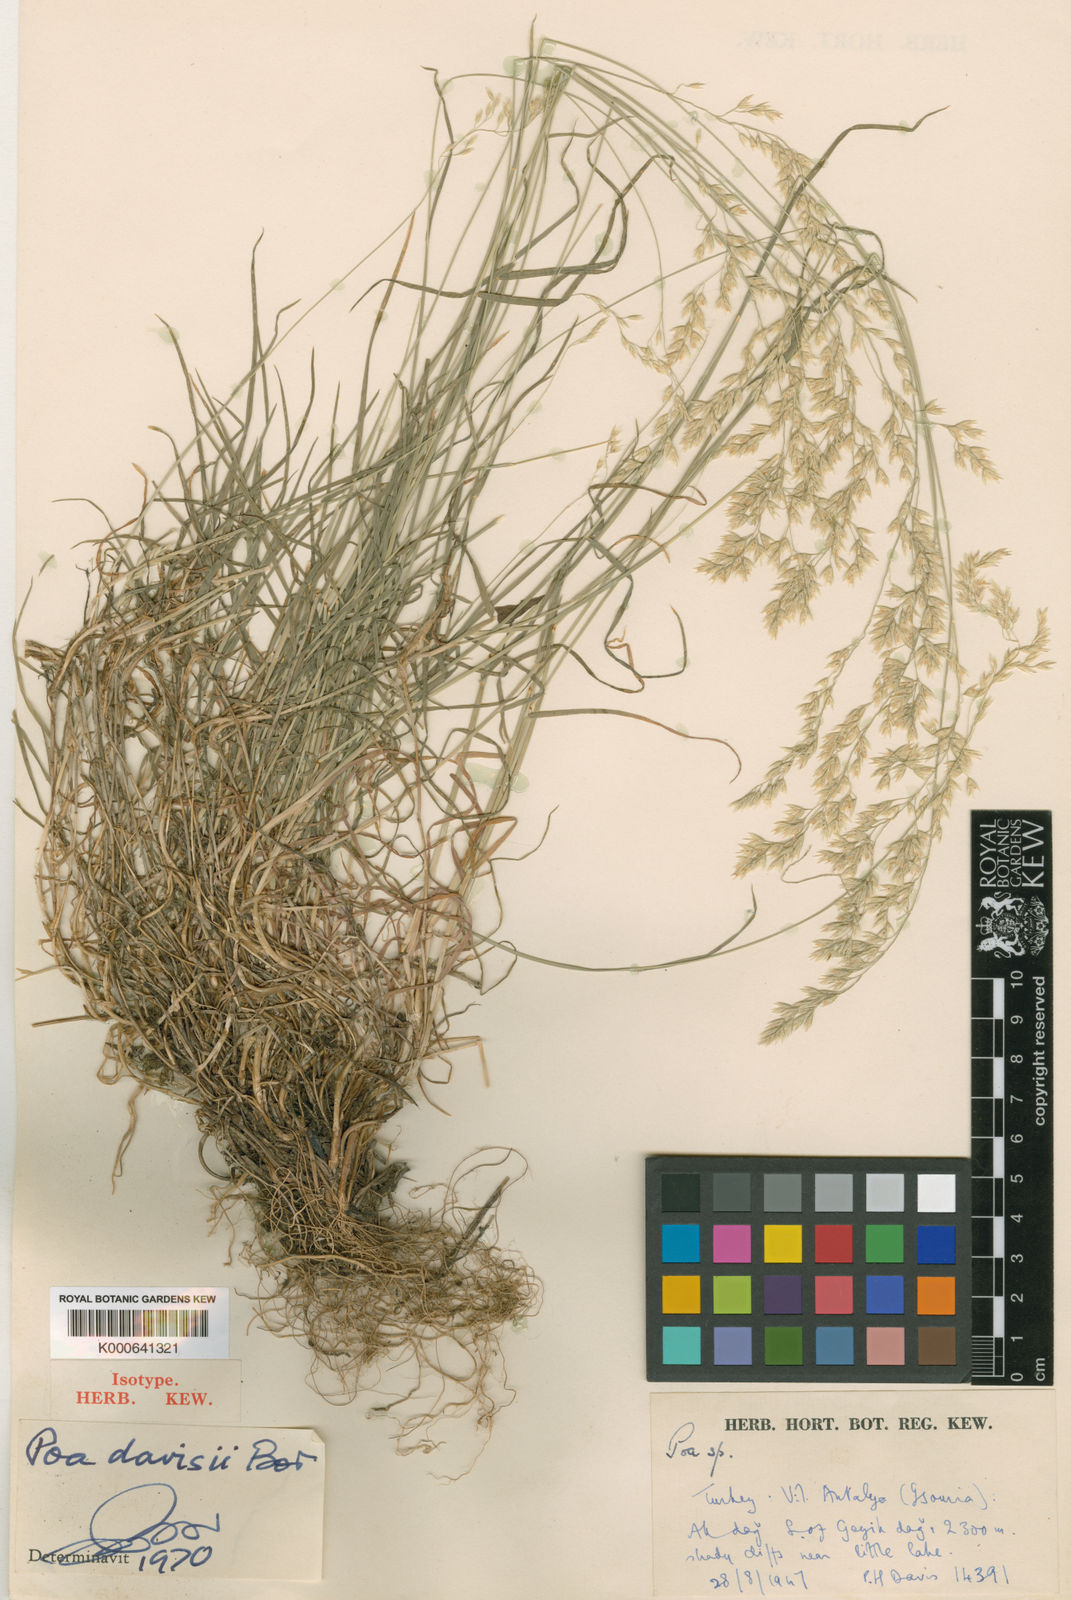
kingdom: Plantae
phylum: Tracheophyta
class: Liliopsida
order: Poales
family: Poaceae
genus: Poa
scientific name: Poa davisii
